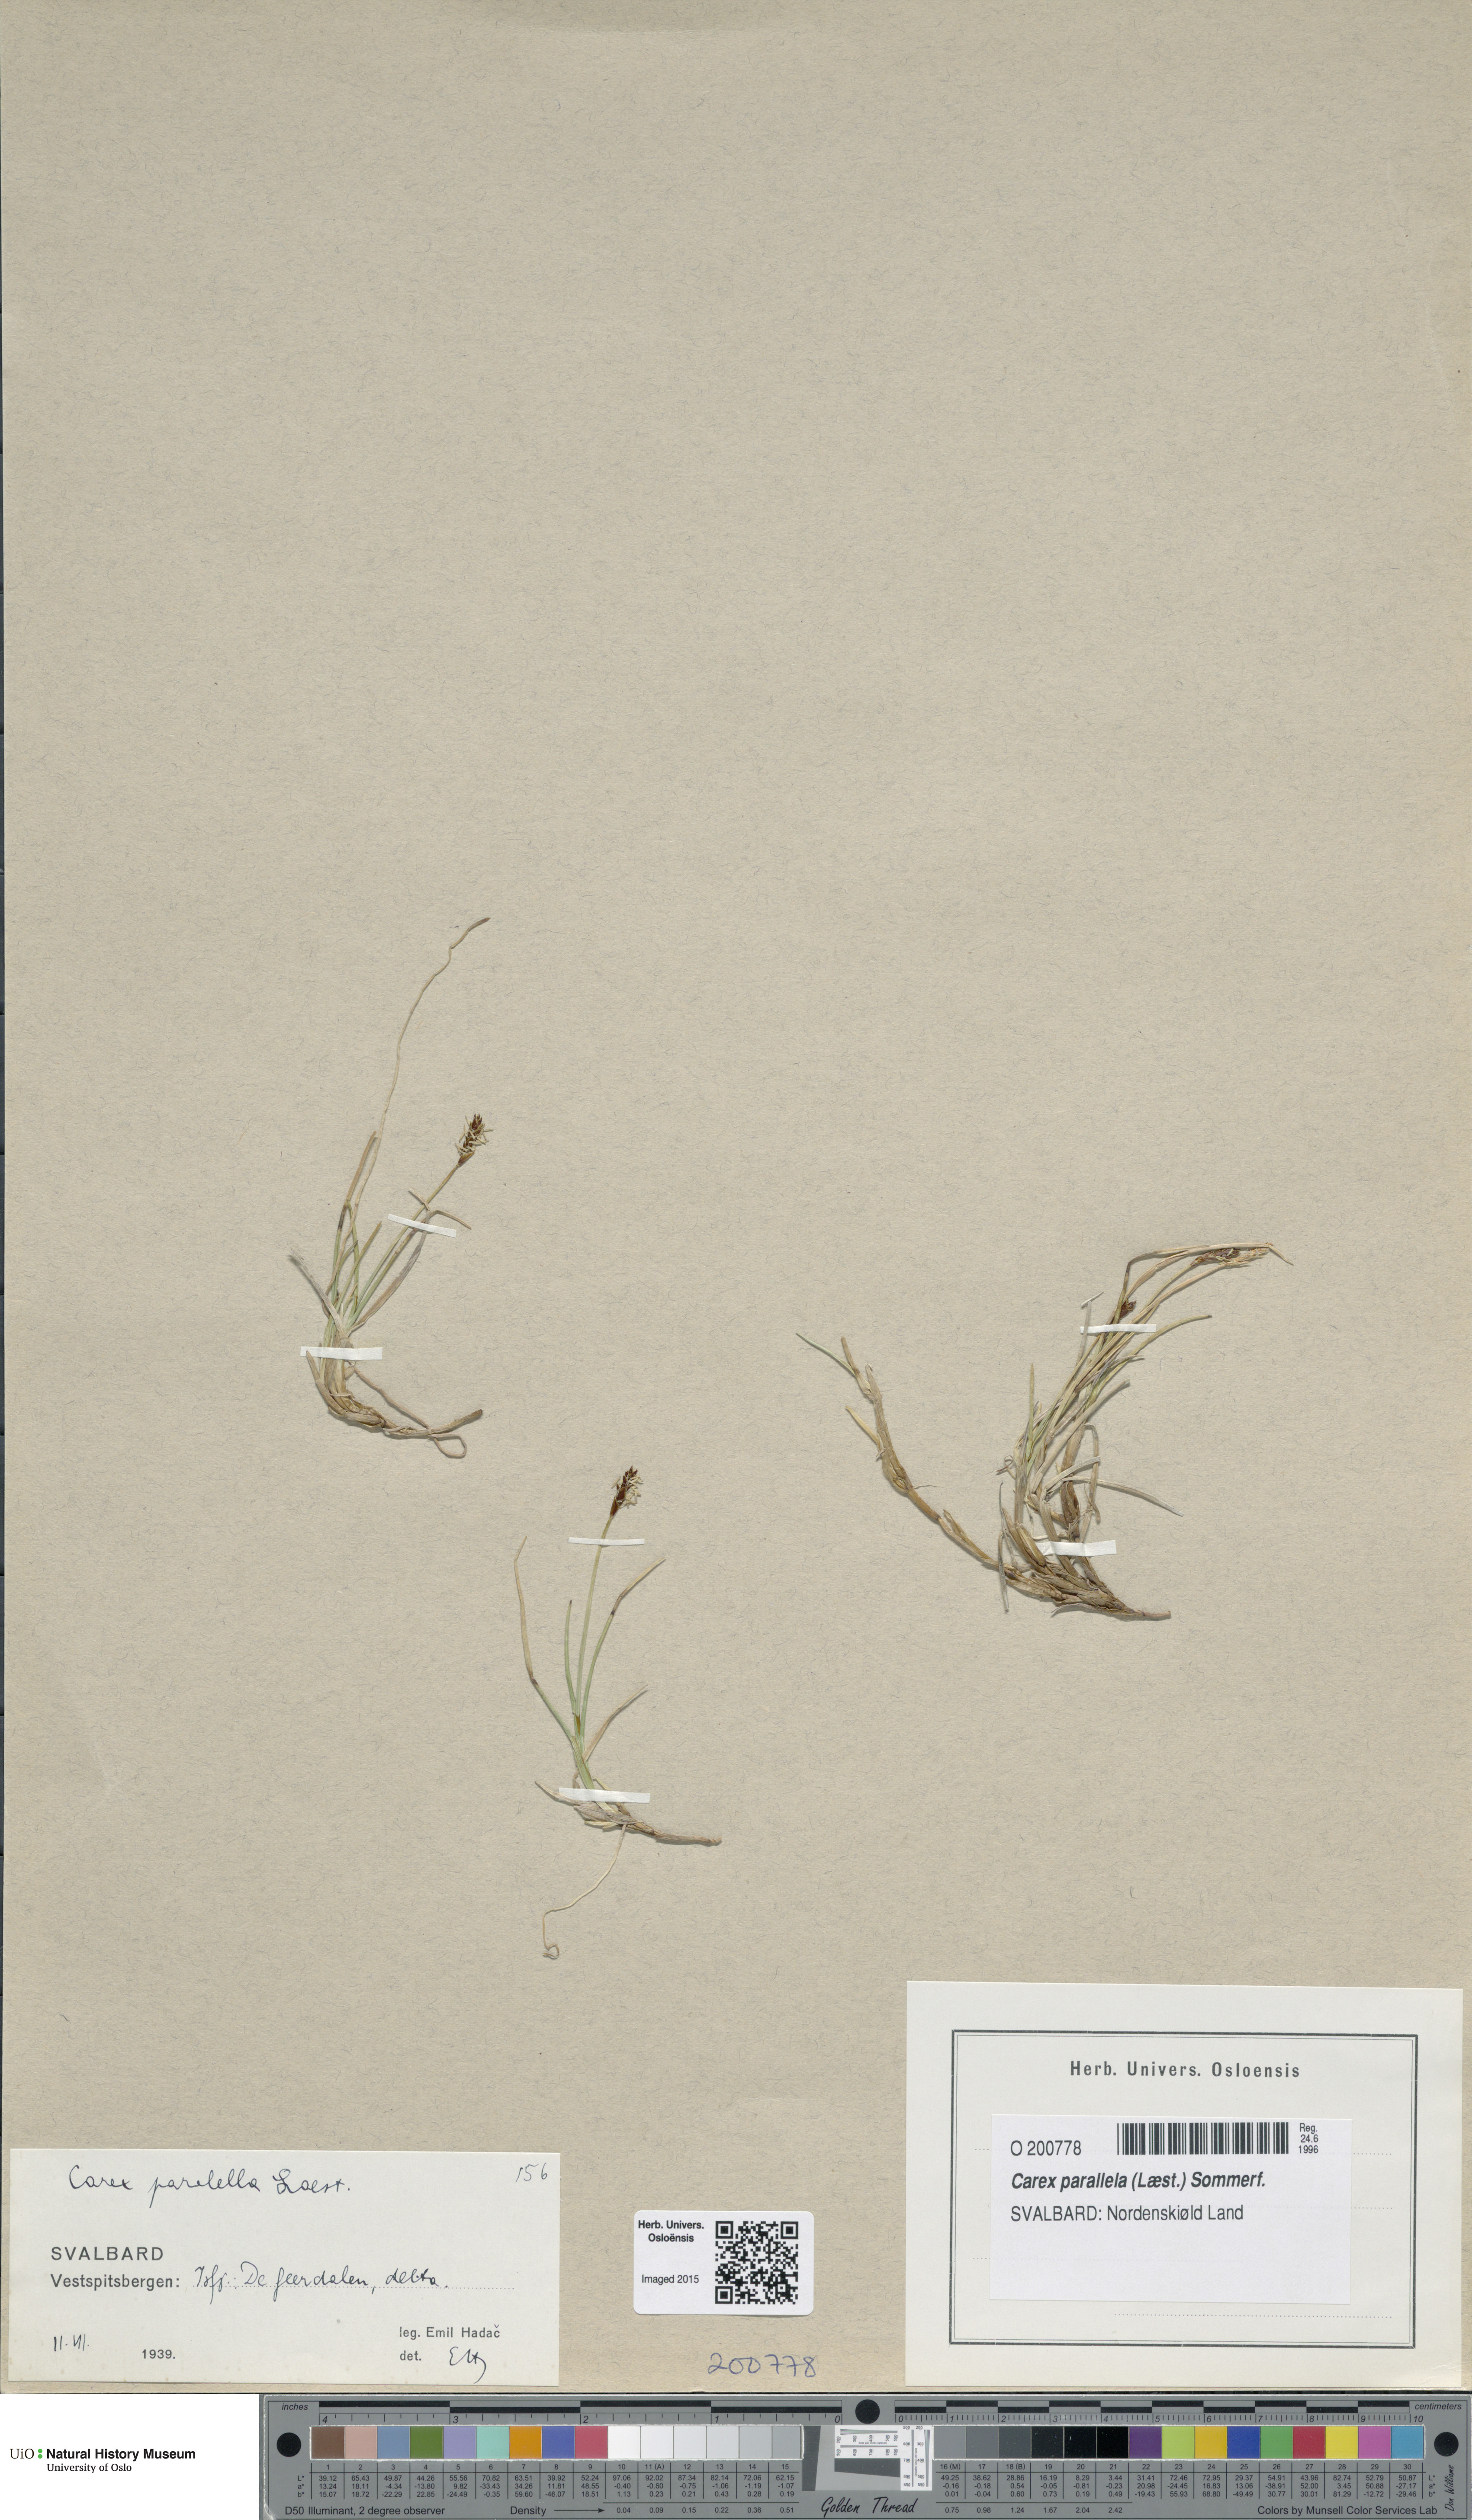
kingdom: Plantae
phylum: Tracheophyta
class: Liliopsida
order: Poales
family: Cyperaceae
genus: Carex
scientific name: Carex parallela
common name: Parallel sedge
